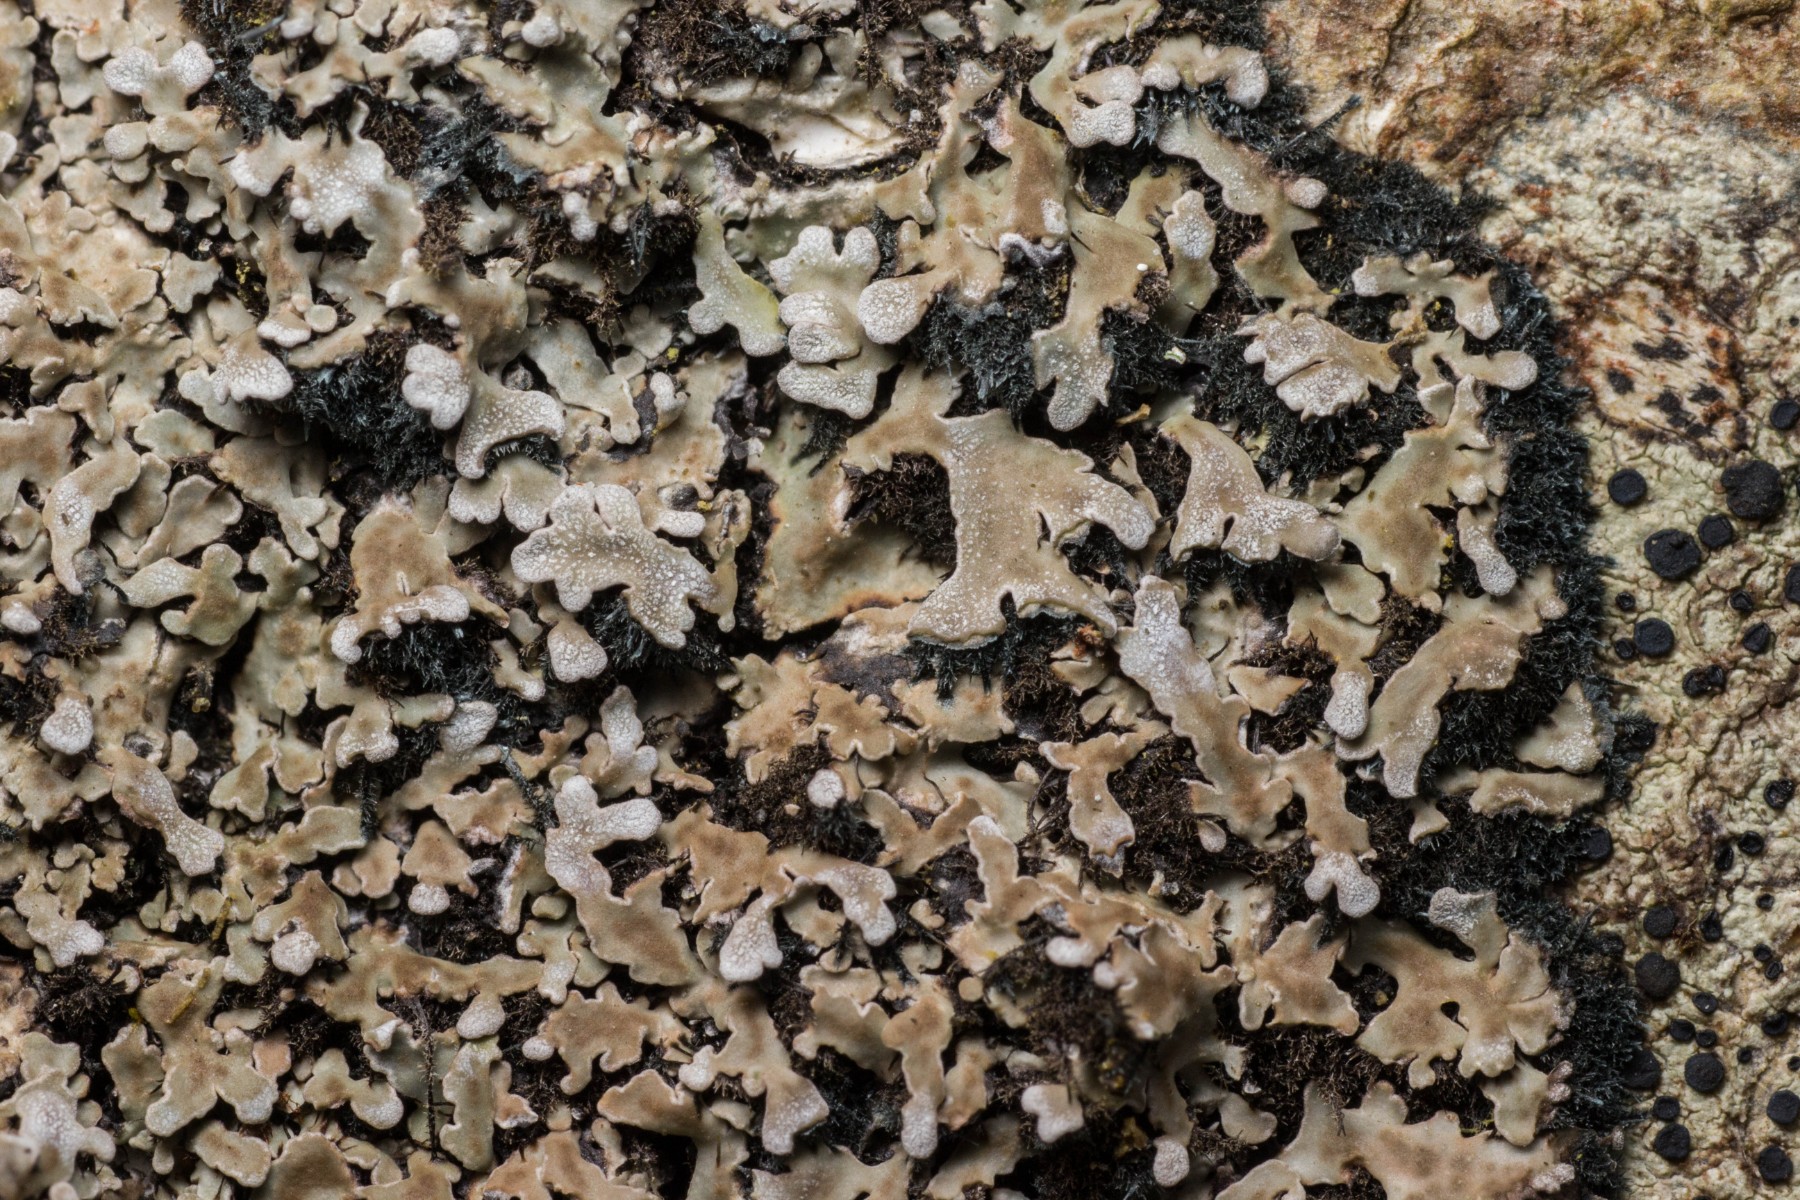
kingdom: Fungi
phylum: Ascomycota
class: Lecanoromycetes
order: Caliciales
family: Physciaceae
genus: Physconia
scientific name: Physconia distorta
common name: pudret dugrosetlav
